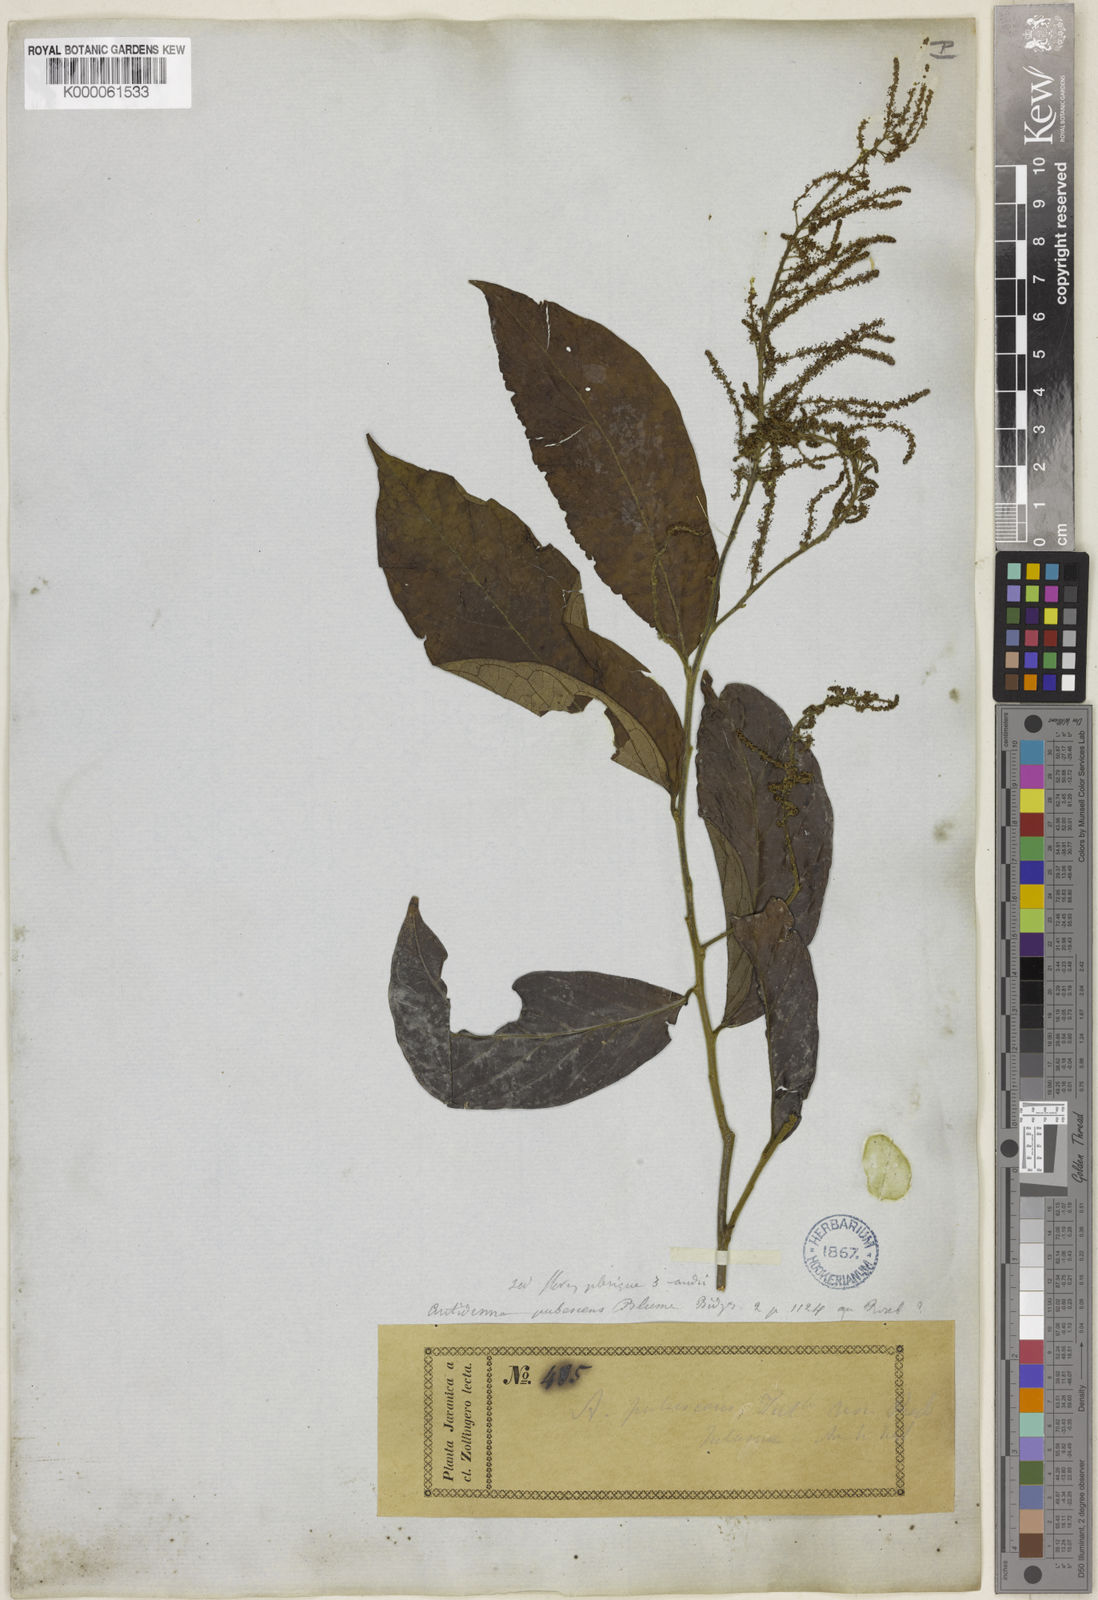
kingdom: Plantae
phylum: Tracheophyta
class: Magnoliopsida
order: Malpighiales
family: Phyllanthaceae
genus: Antidesma
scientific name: Antidesma montanum
